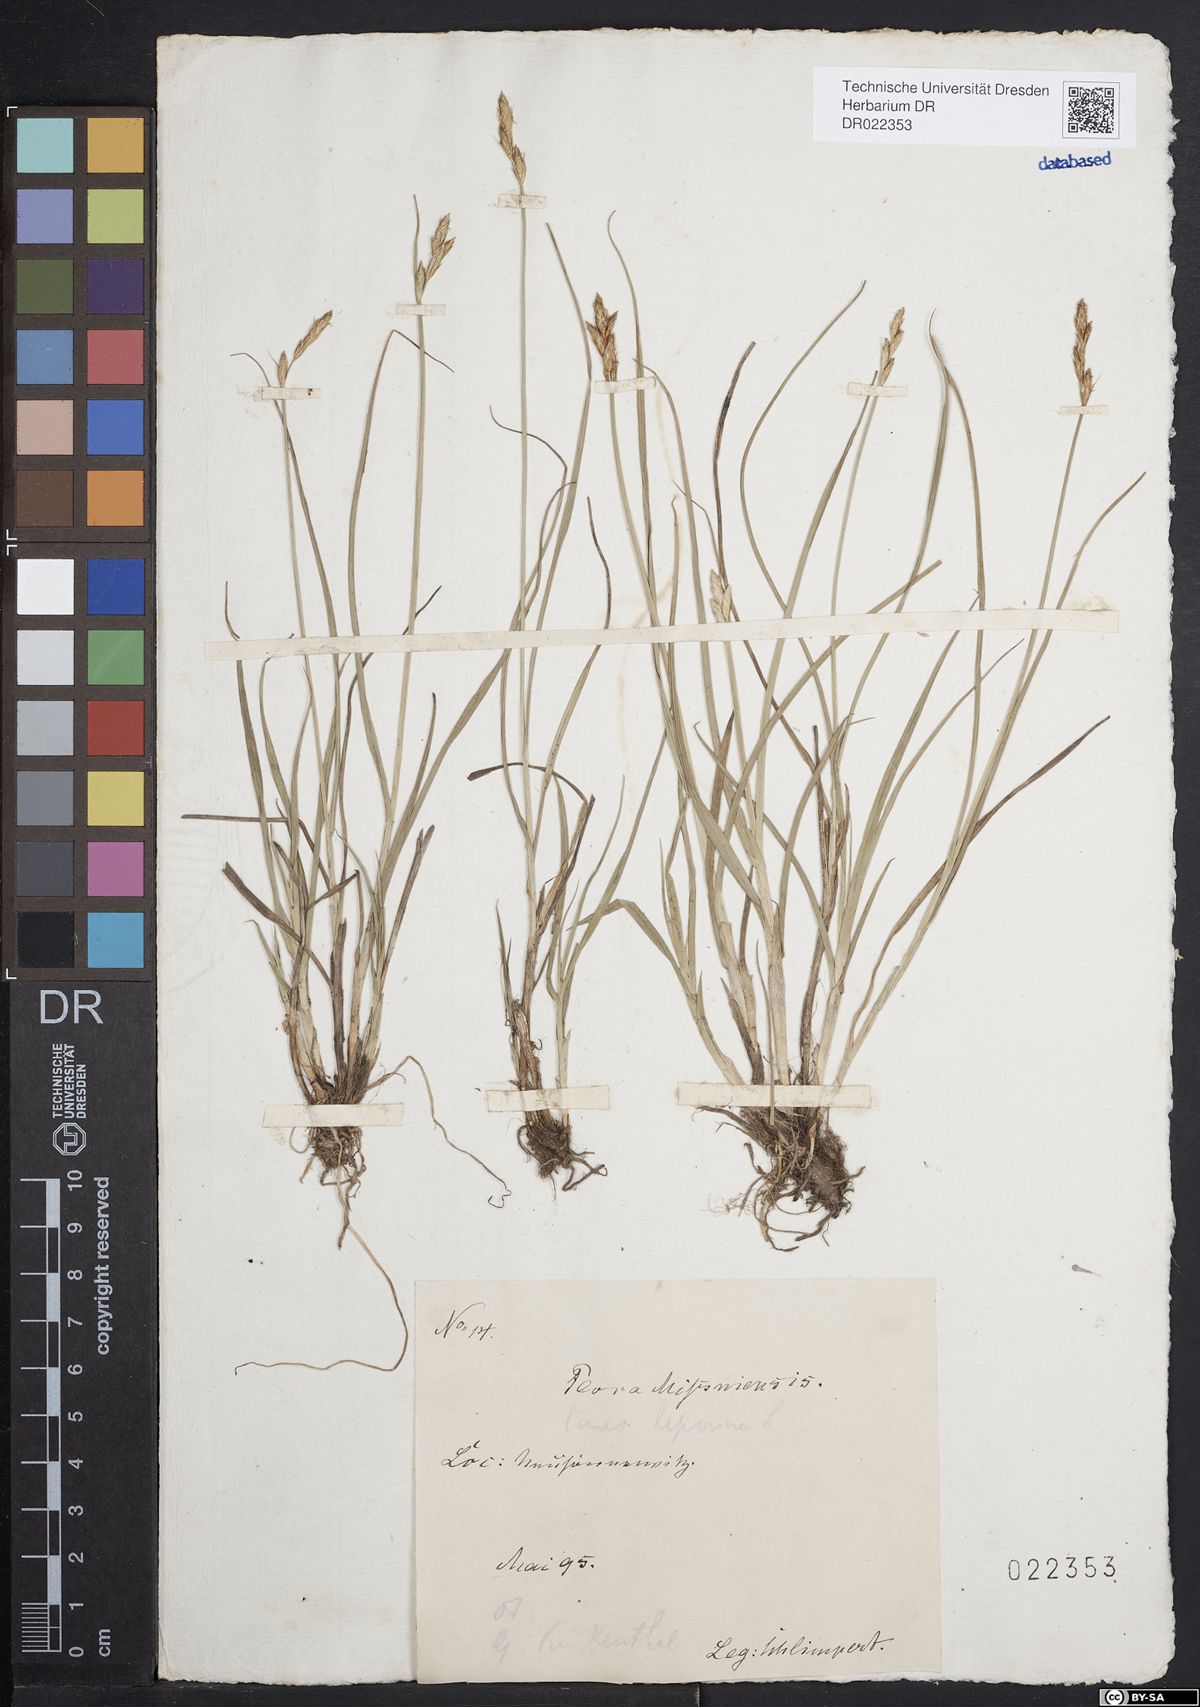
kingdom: Plantae
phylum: Tracheophyta
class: Liliopsida
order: Poales
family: Cyperaceae
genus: Carex
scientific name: Carex leporina
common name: Oval sedge
